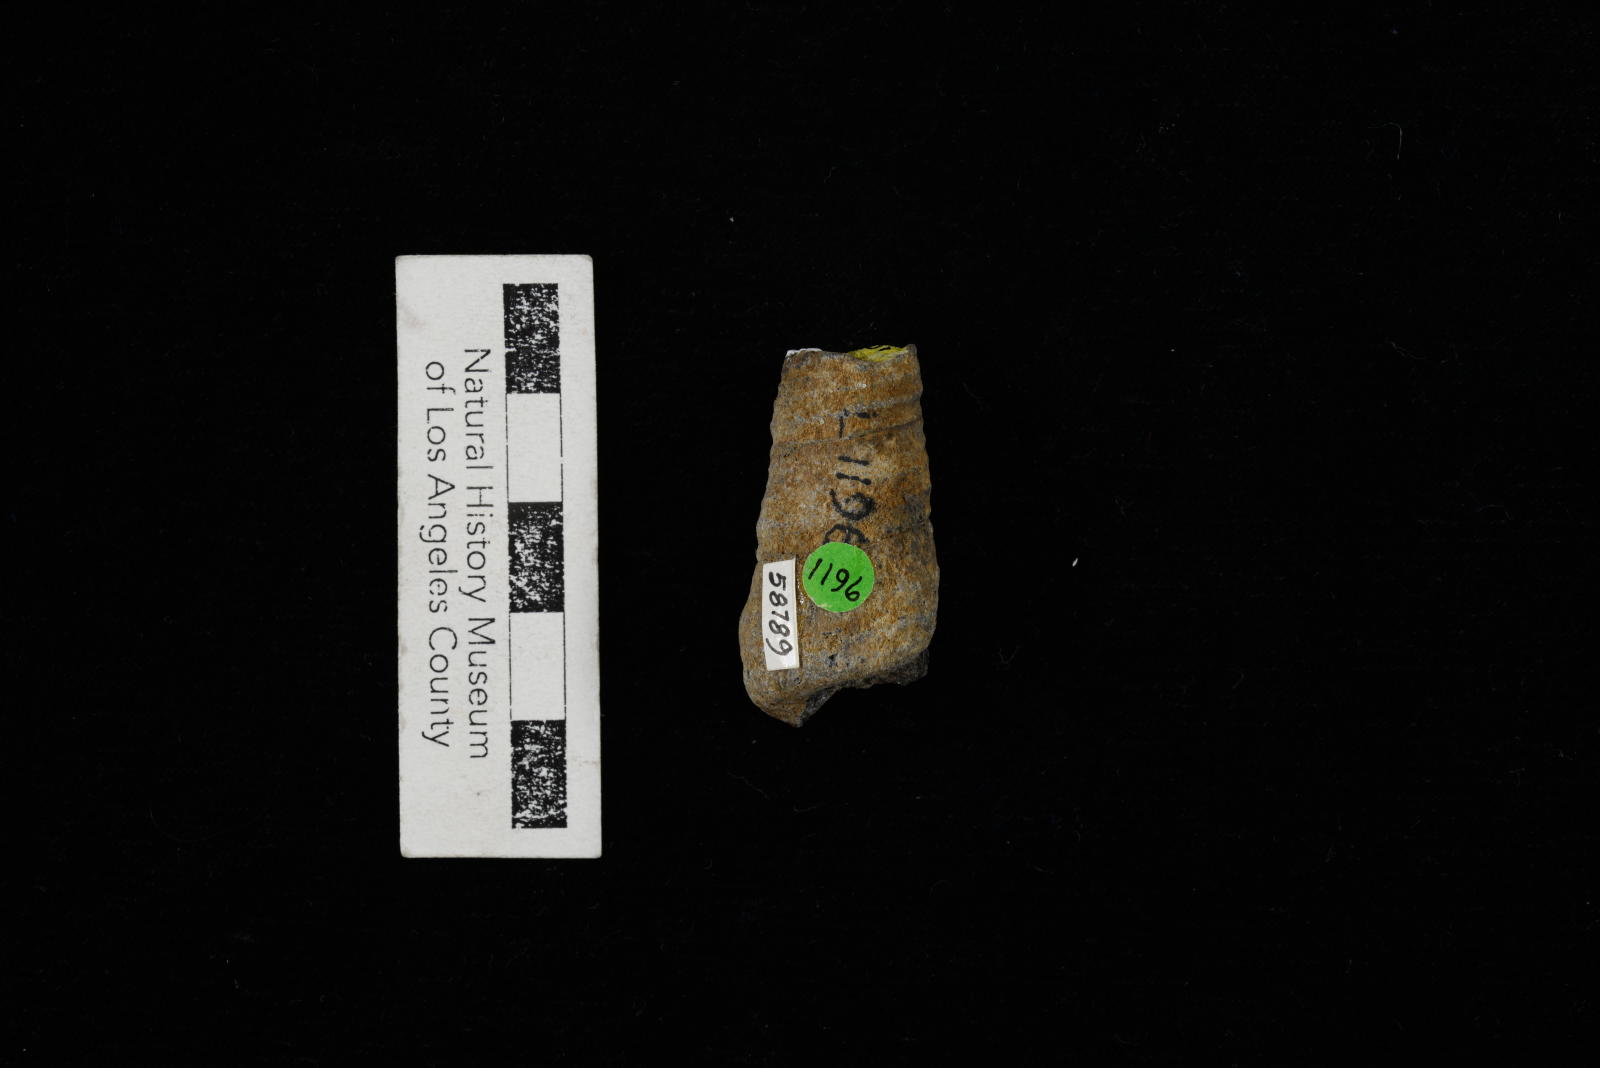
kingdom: Animalia
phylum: Mollusca
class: Gastropoda
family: Turritellidae
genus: Turritella
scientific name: Turritella
